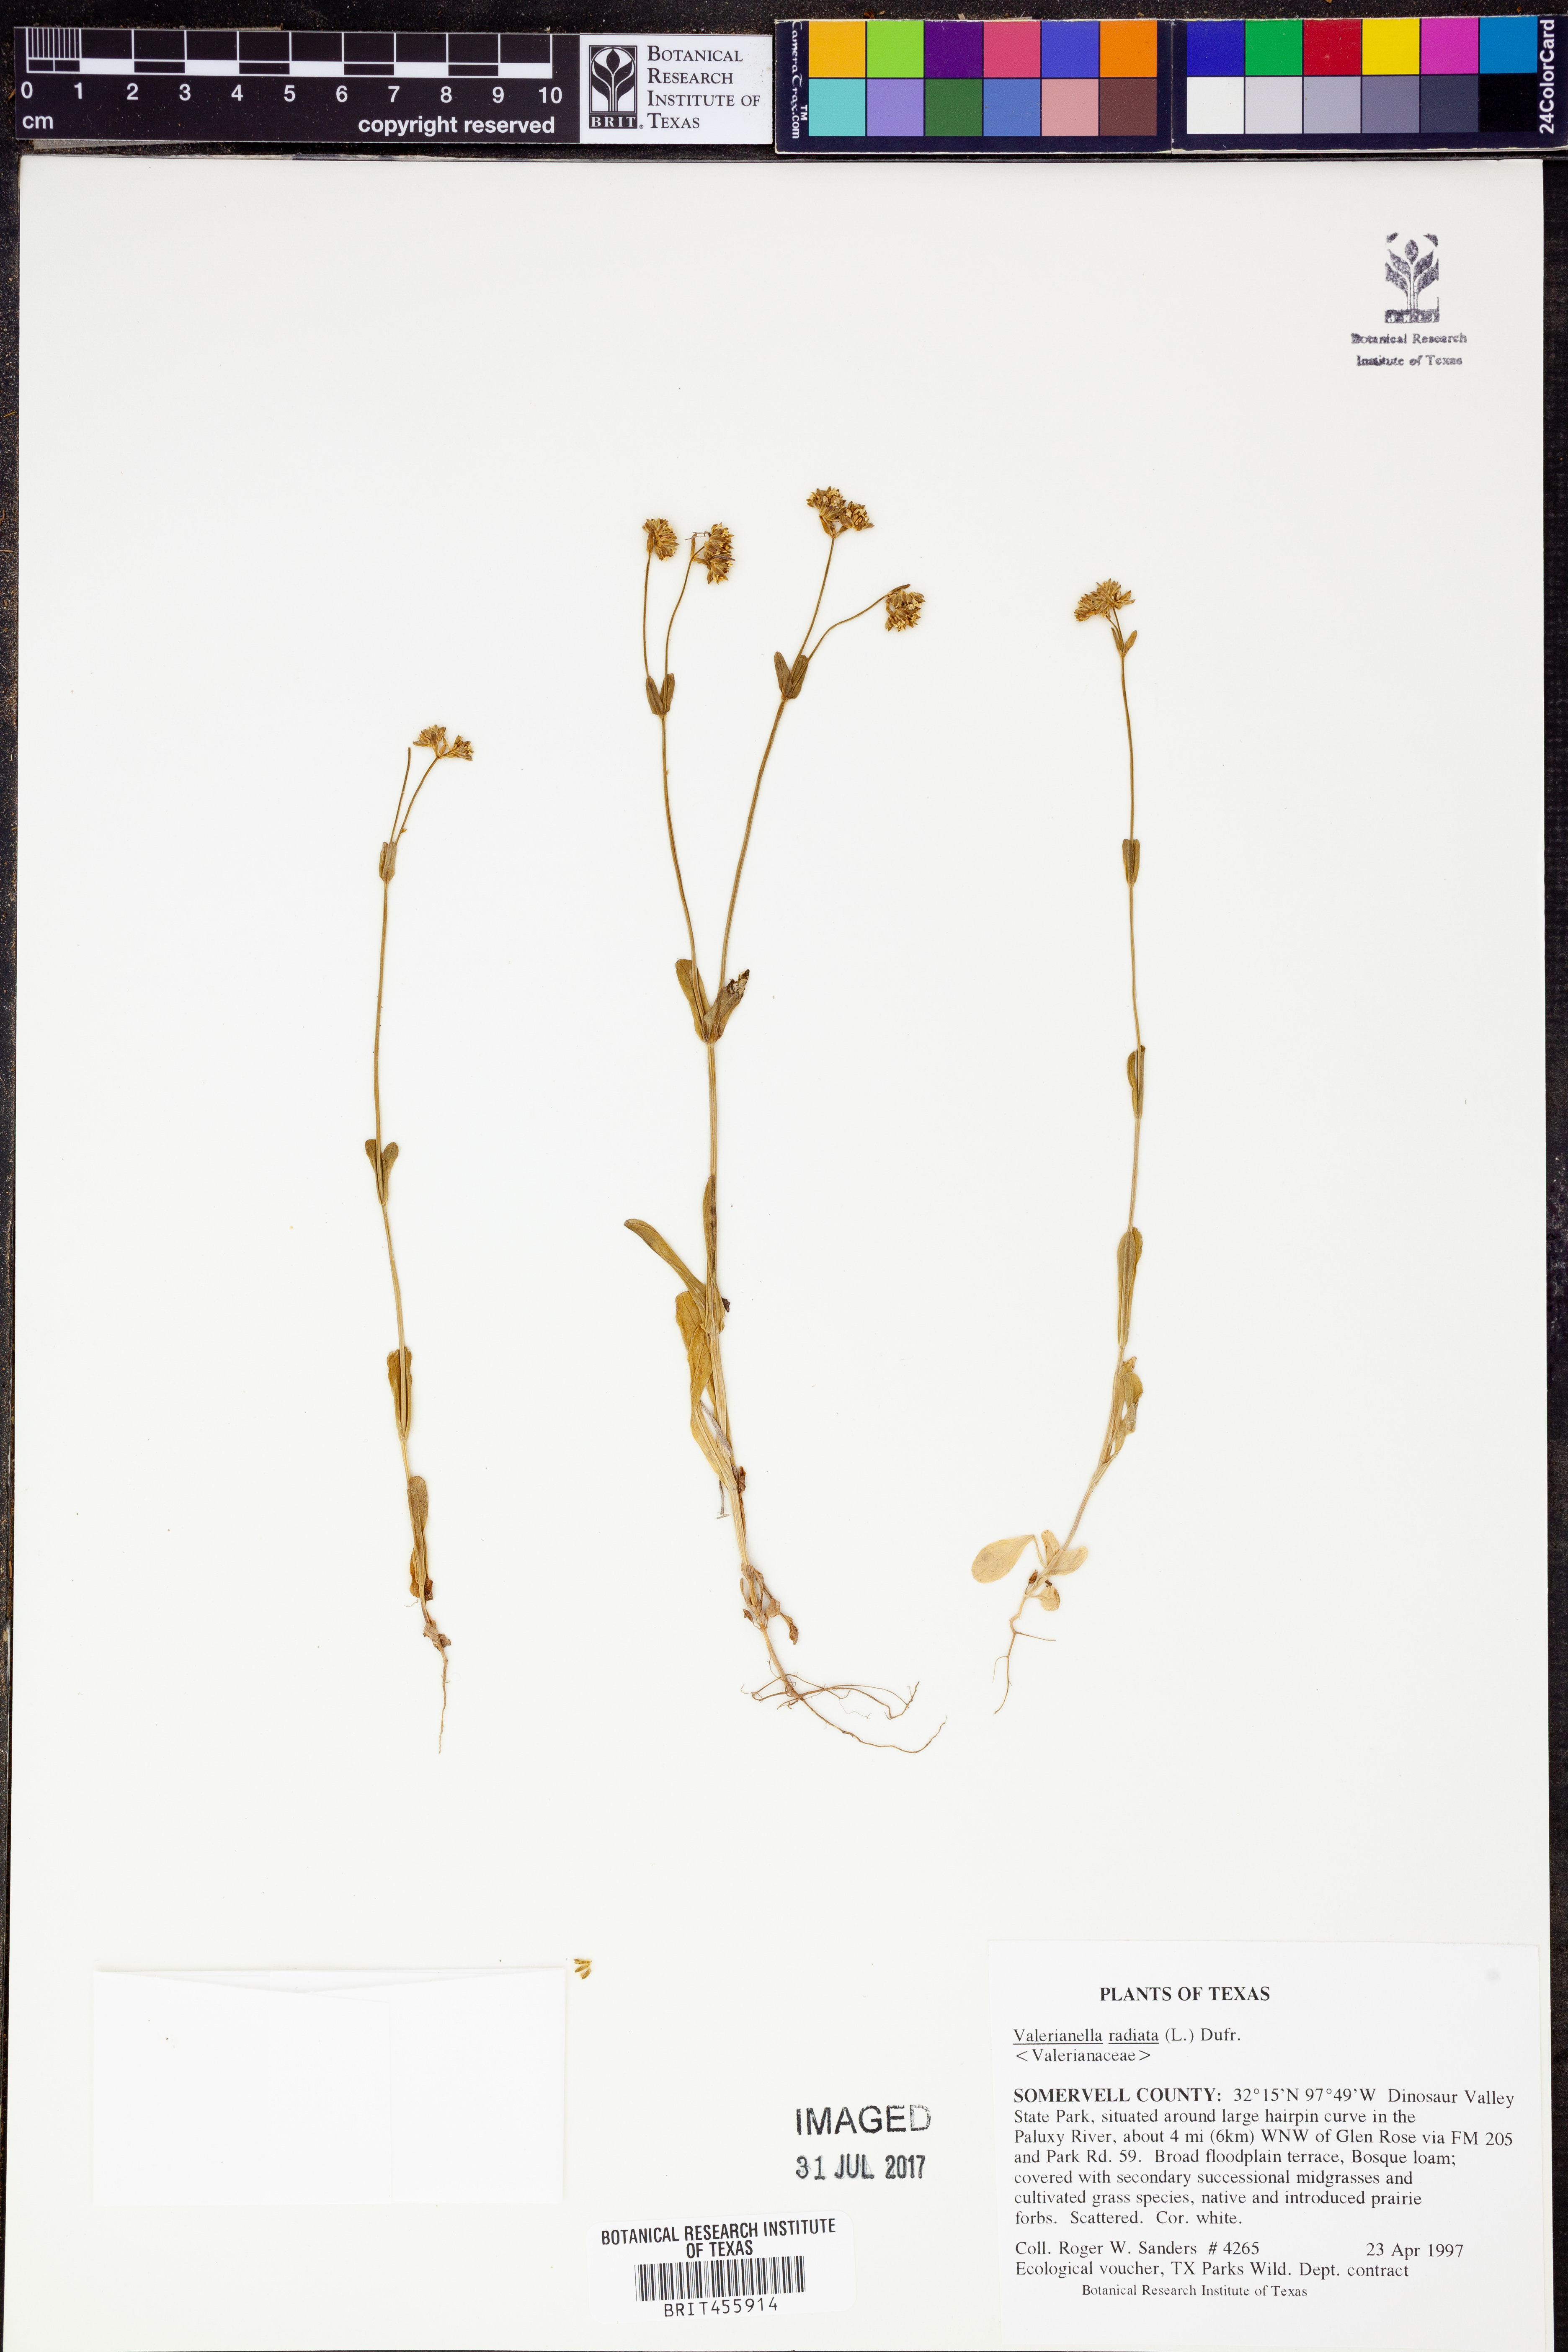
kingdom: Plantae
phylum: Tracheophyta
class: Magnoliopsida
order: Dipsacales
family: Caprifoliaceae
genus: Valerianella
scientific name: Valerianella radiata
